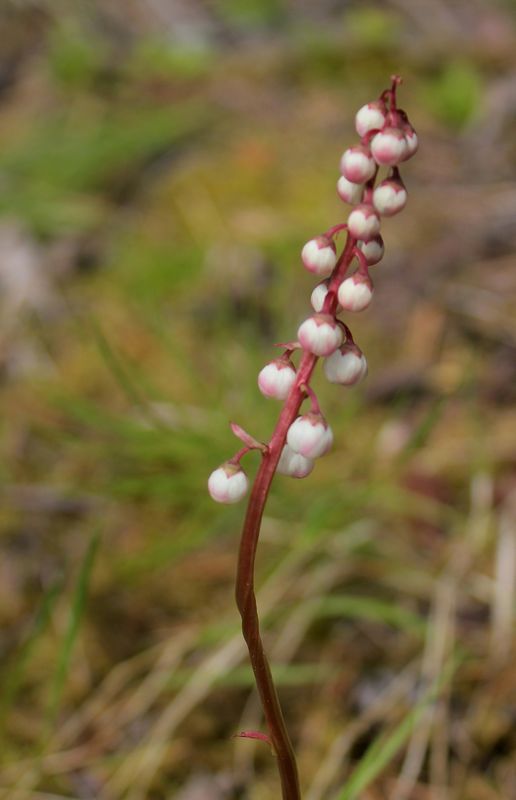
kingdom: Plantae
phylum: Tracheophyta
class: Magnoliopsida
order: Ericales
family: Ericaceae
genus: Pyrola
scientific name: Pyrola minor
